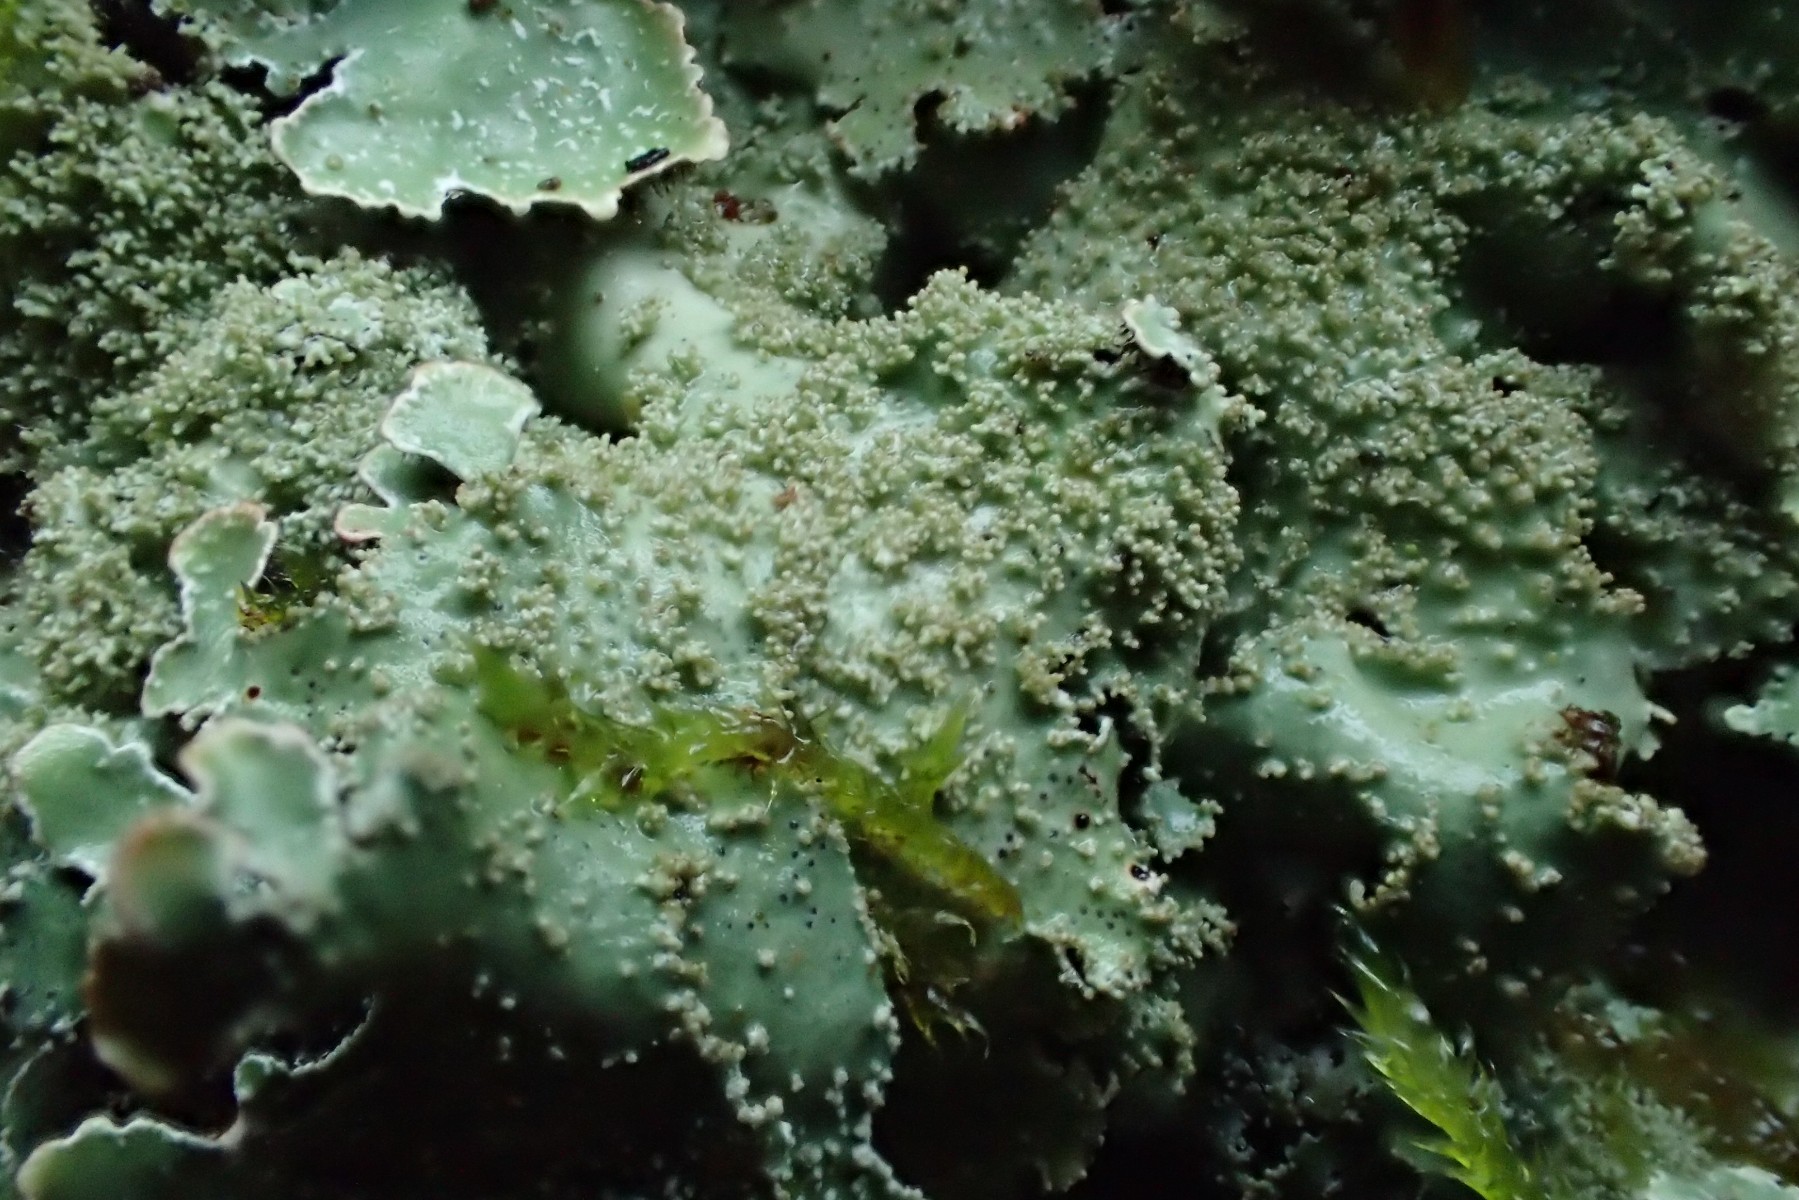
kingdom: Fungi
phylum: Ascomycota
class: Lecanoromycetes
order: Lecanorales
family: Parmeliaceae
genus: Parmelia
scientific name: Parmelia saxatilis
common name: farve-skållav
